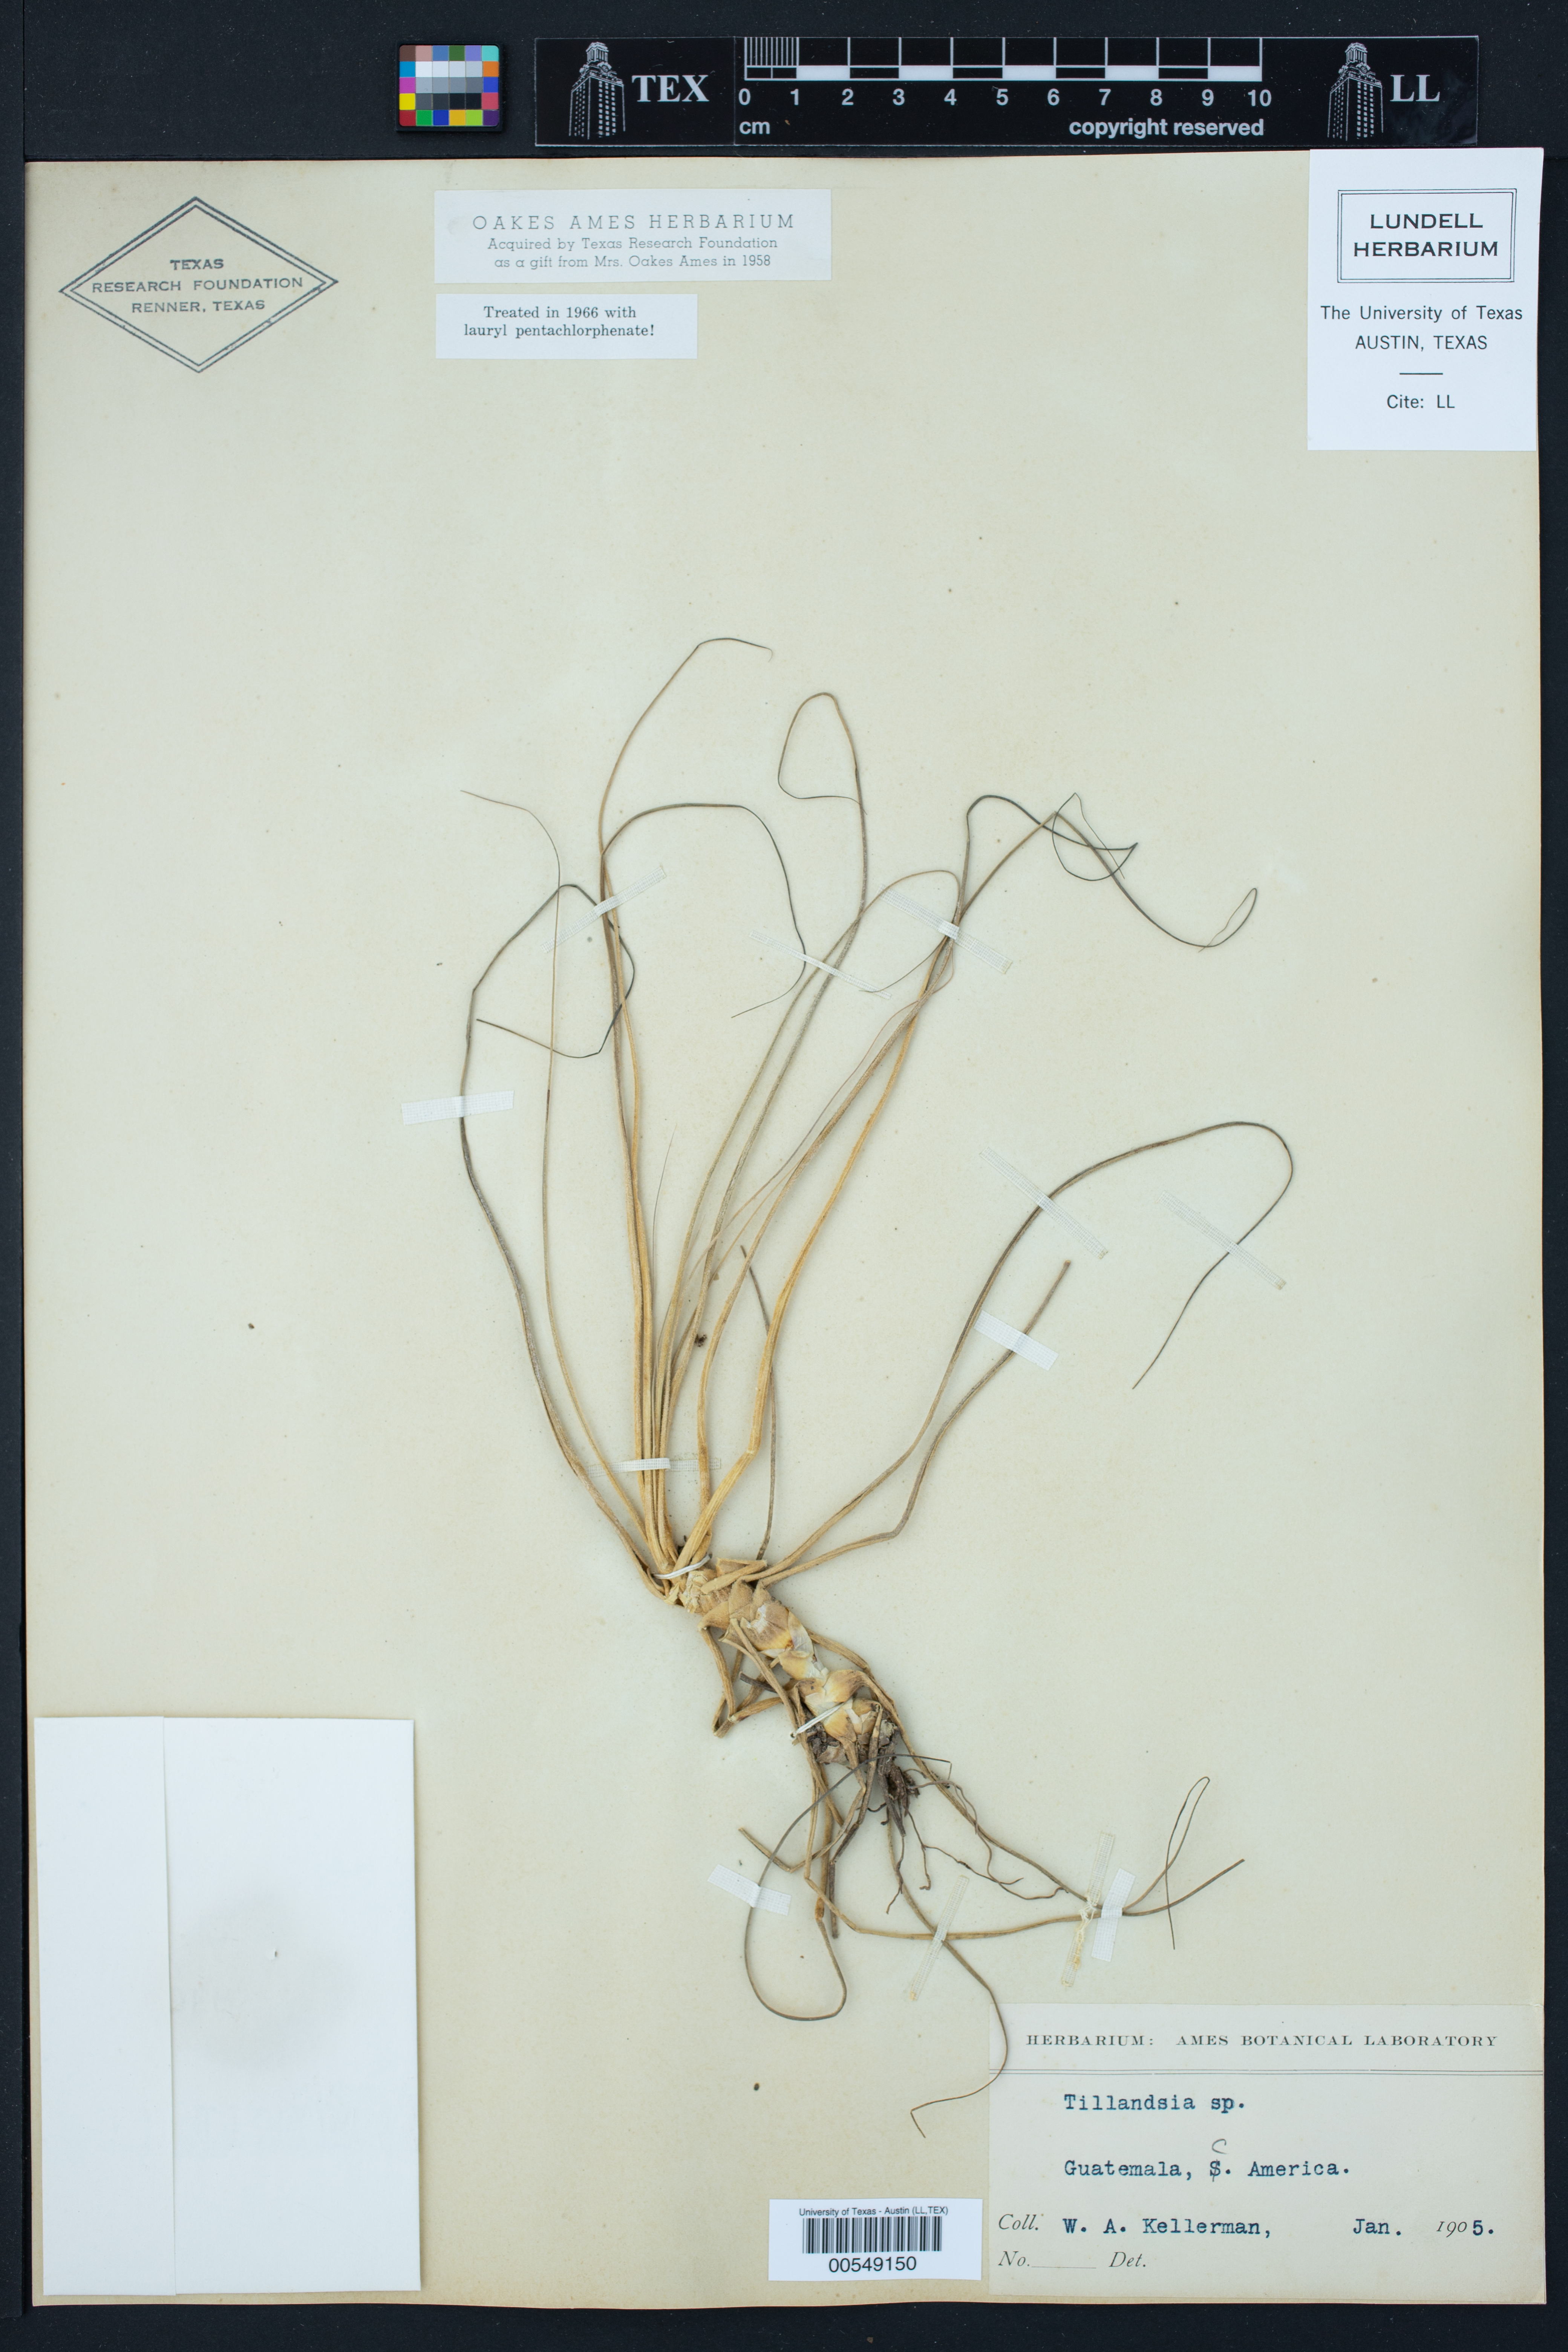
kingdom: Plantae
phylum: Tracheophyta
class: Liliopsida
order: Poales
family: Bromeliaceae
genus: Tillandsia
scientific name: Tillandsia
